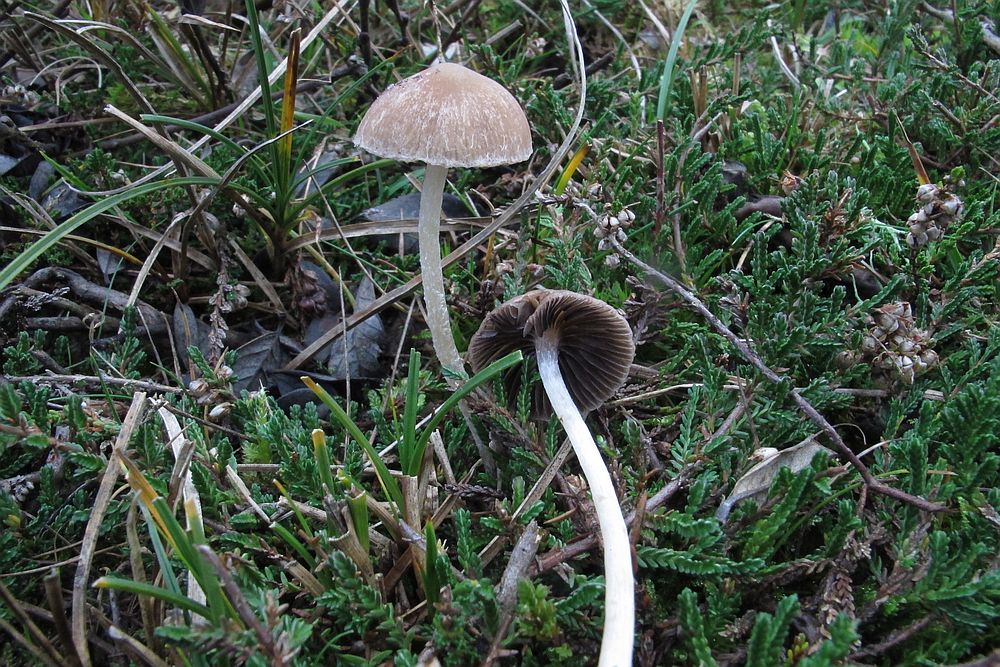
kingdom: Fungi
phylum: Basidiomycota
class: Agaricomycetes
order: Agaricales
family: Psathyrellaceae
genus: Psathyrella
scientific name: Psathyrella orbicularis
